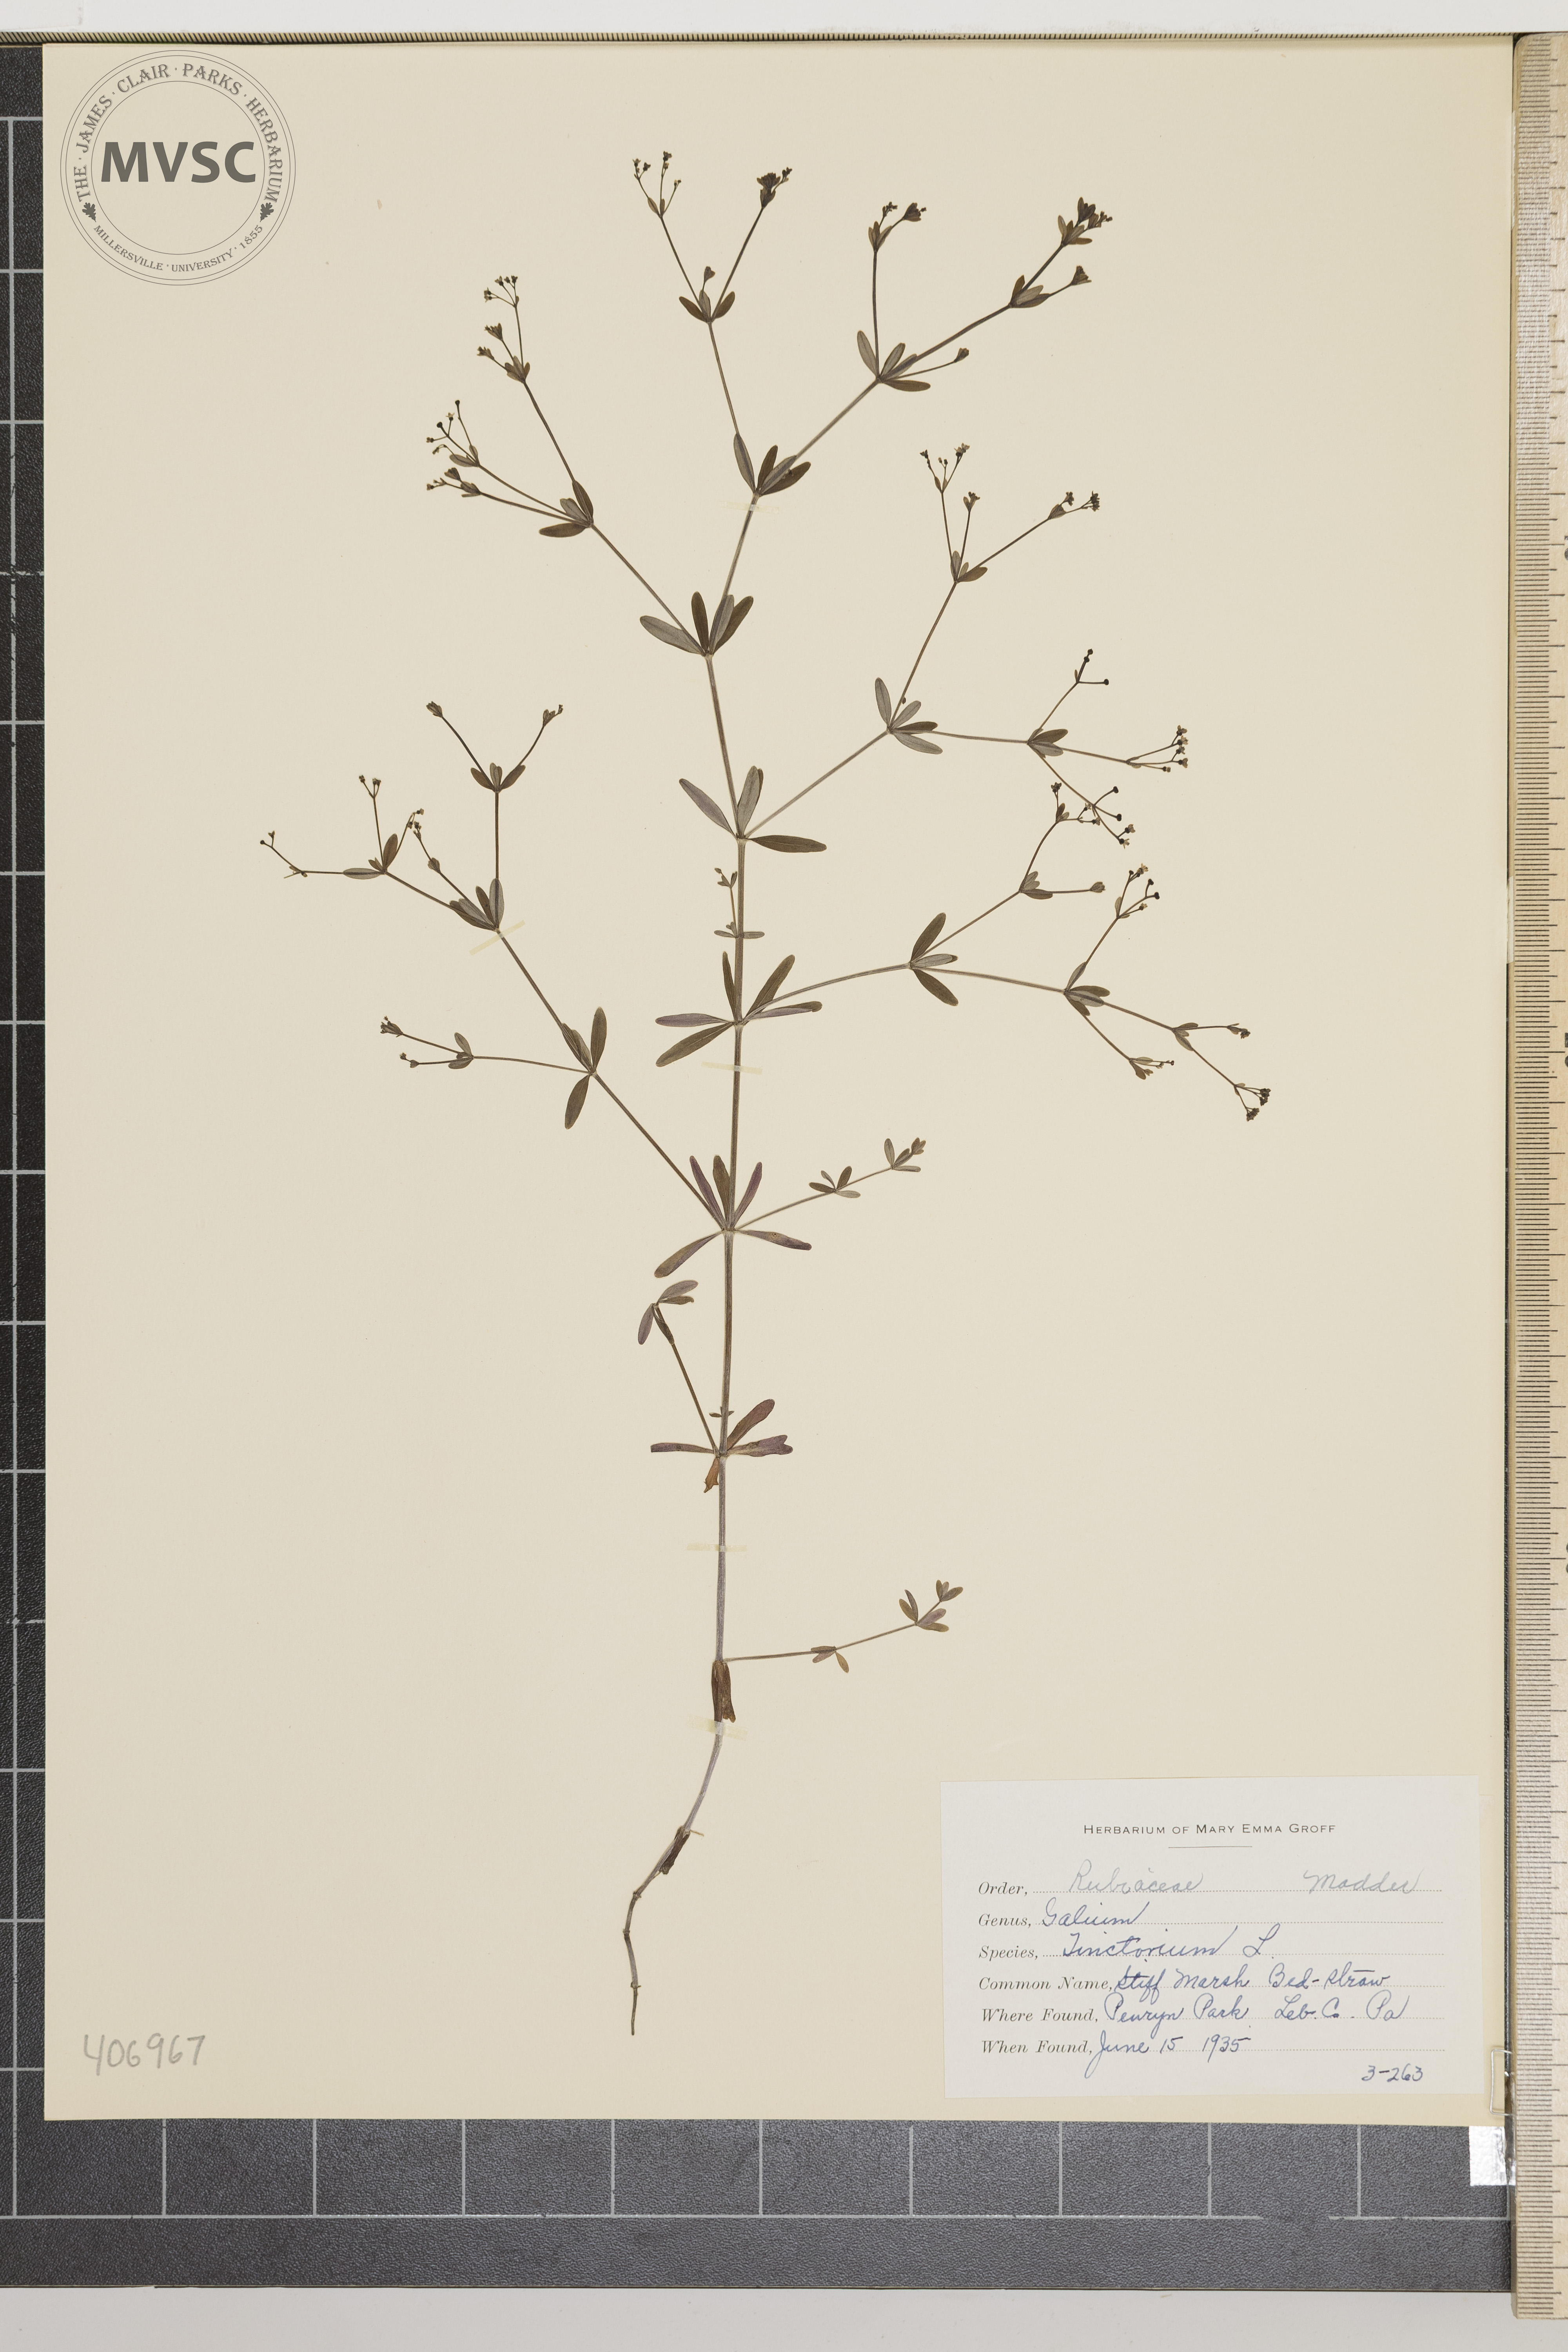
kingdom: Plantae
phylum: Tracheophyta
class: Magnoliopsida
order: Gentianales
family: Rubiaceae
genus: Galium
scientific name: Galium obtusum
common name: Blunt-leaved bedstraw
